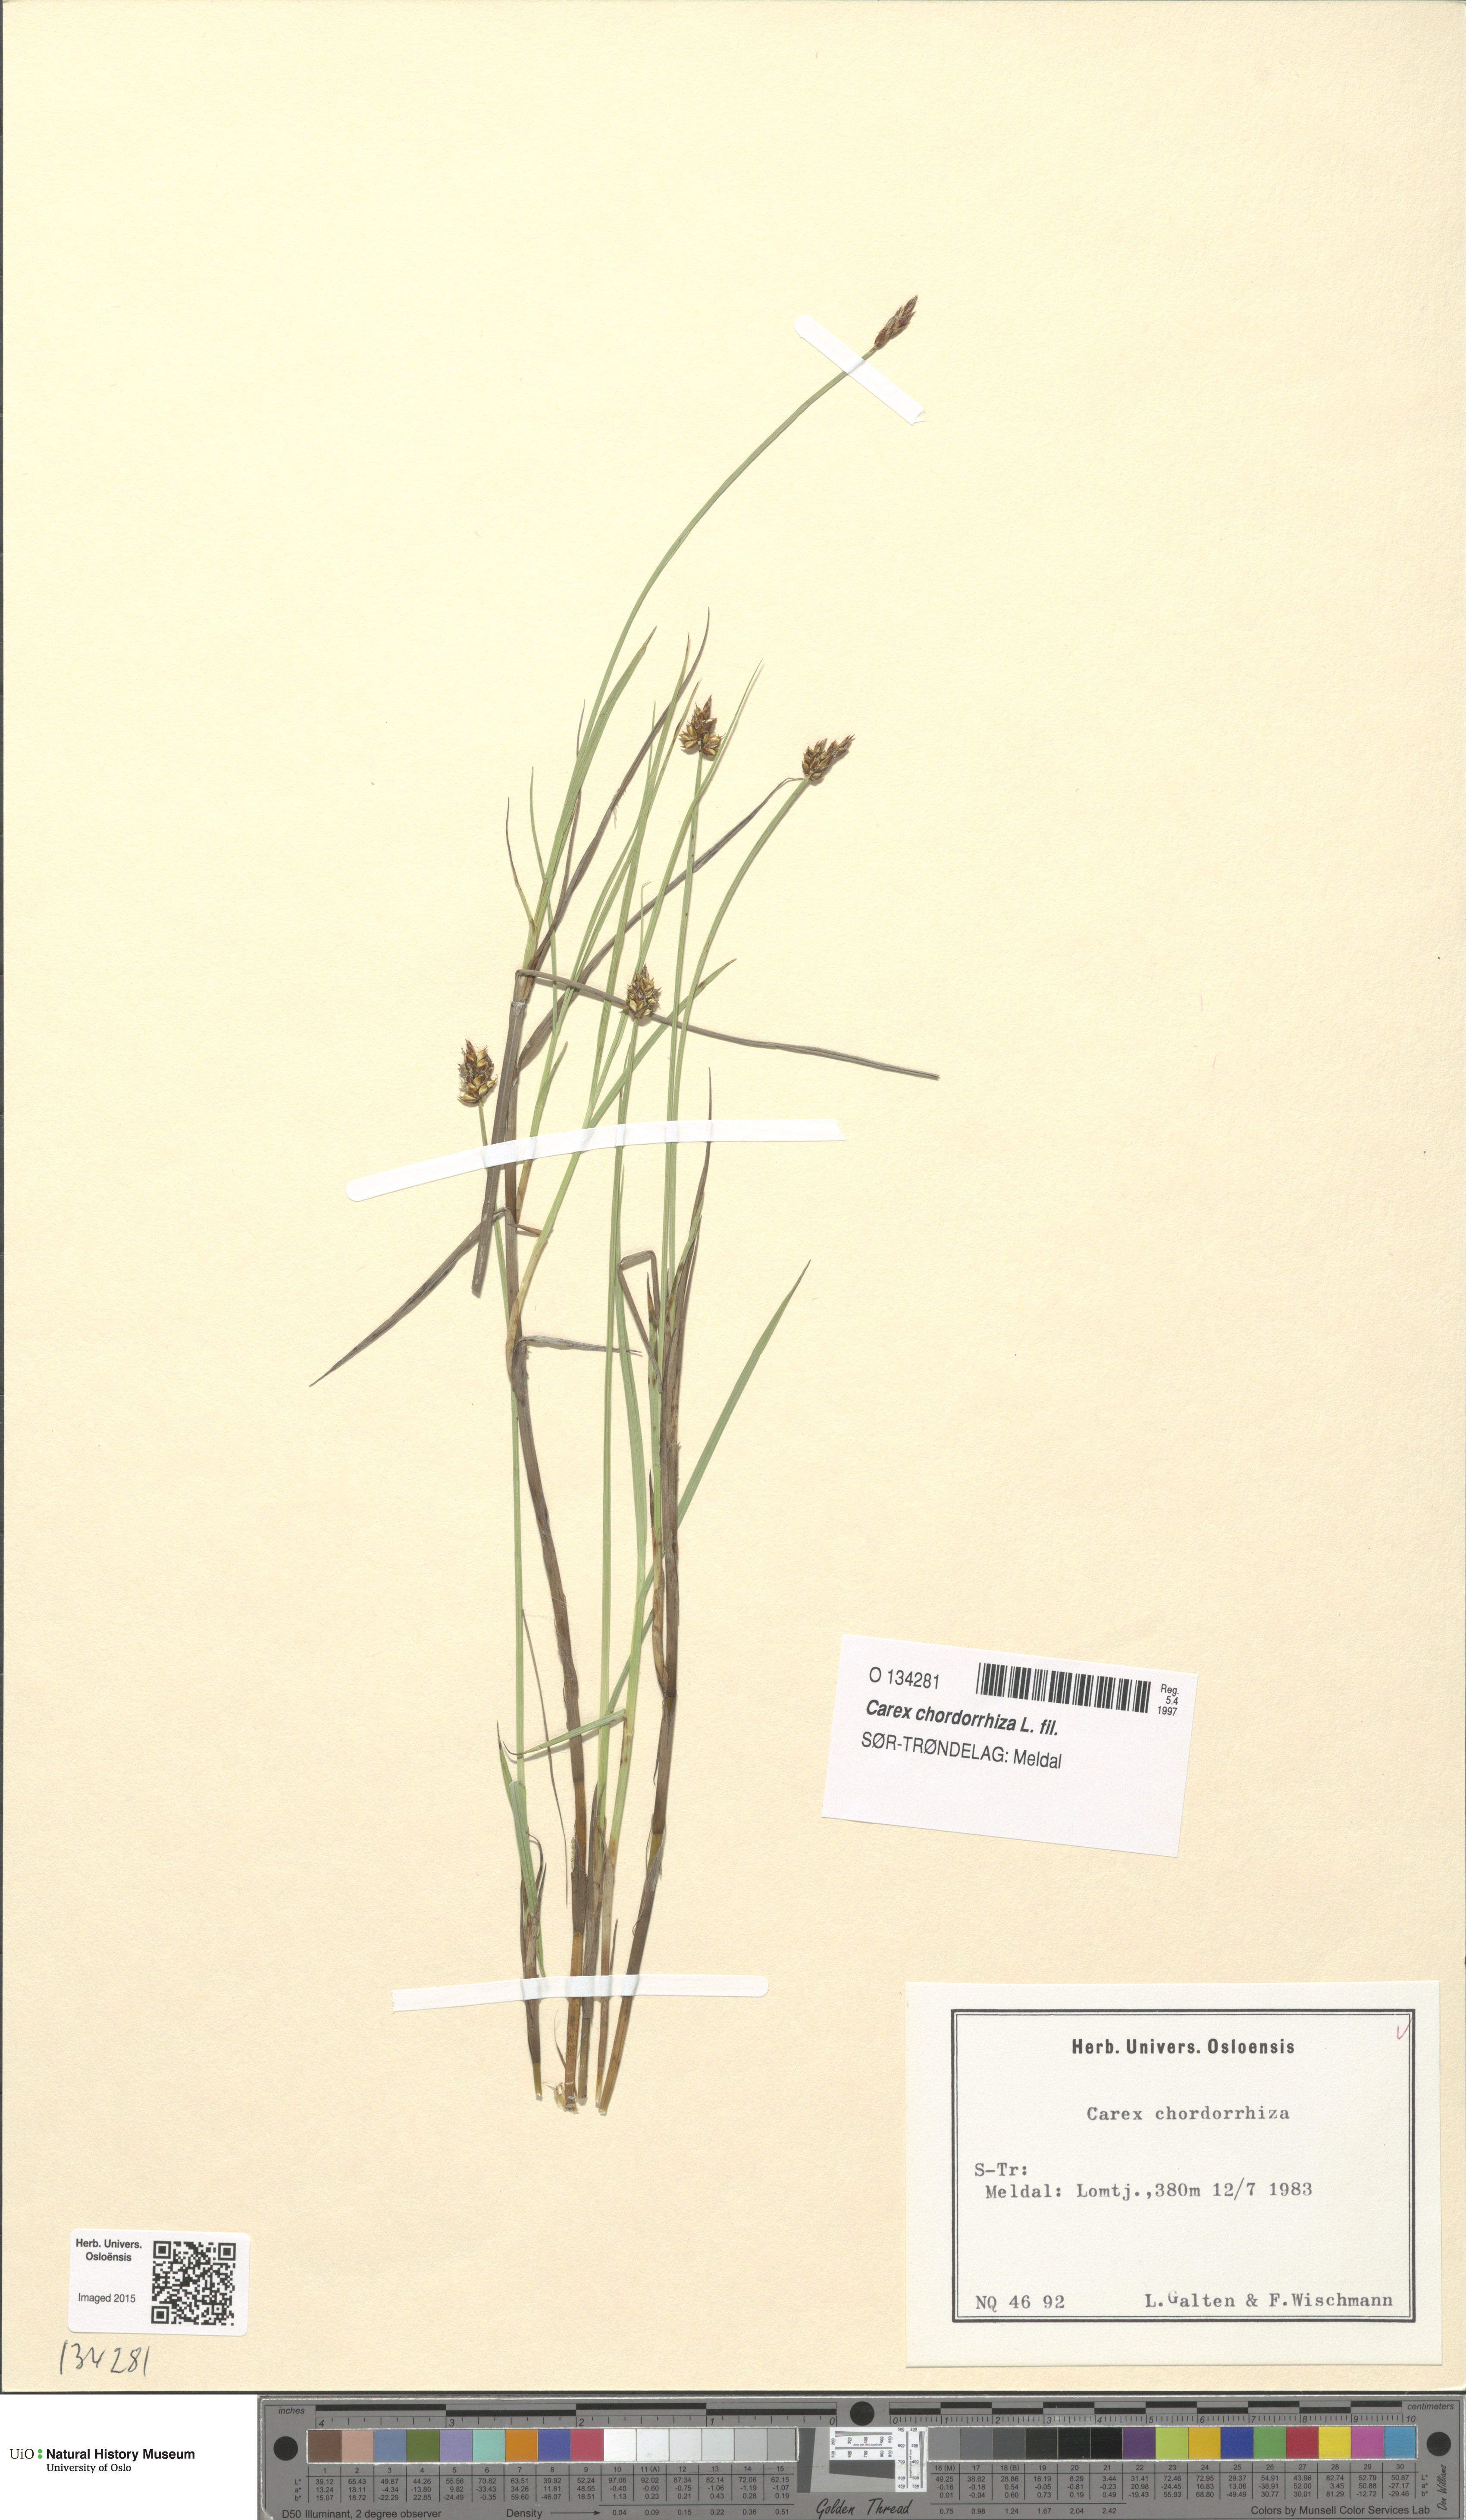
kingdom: Plantae
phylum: Tracheophyta
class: Liliopsida
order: Poales
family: Cyperaceae
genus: Carex
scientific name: Carex chordorrhiza
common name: String sedge
